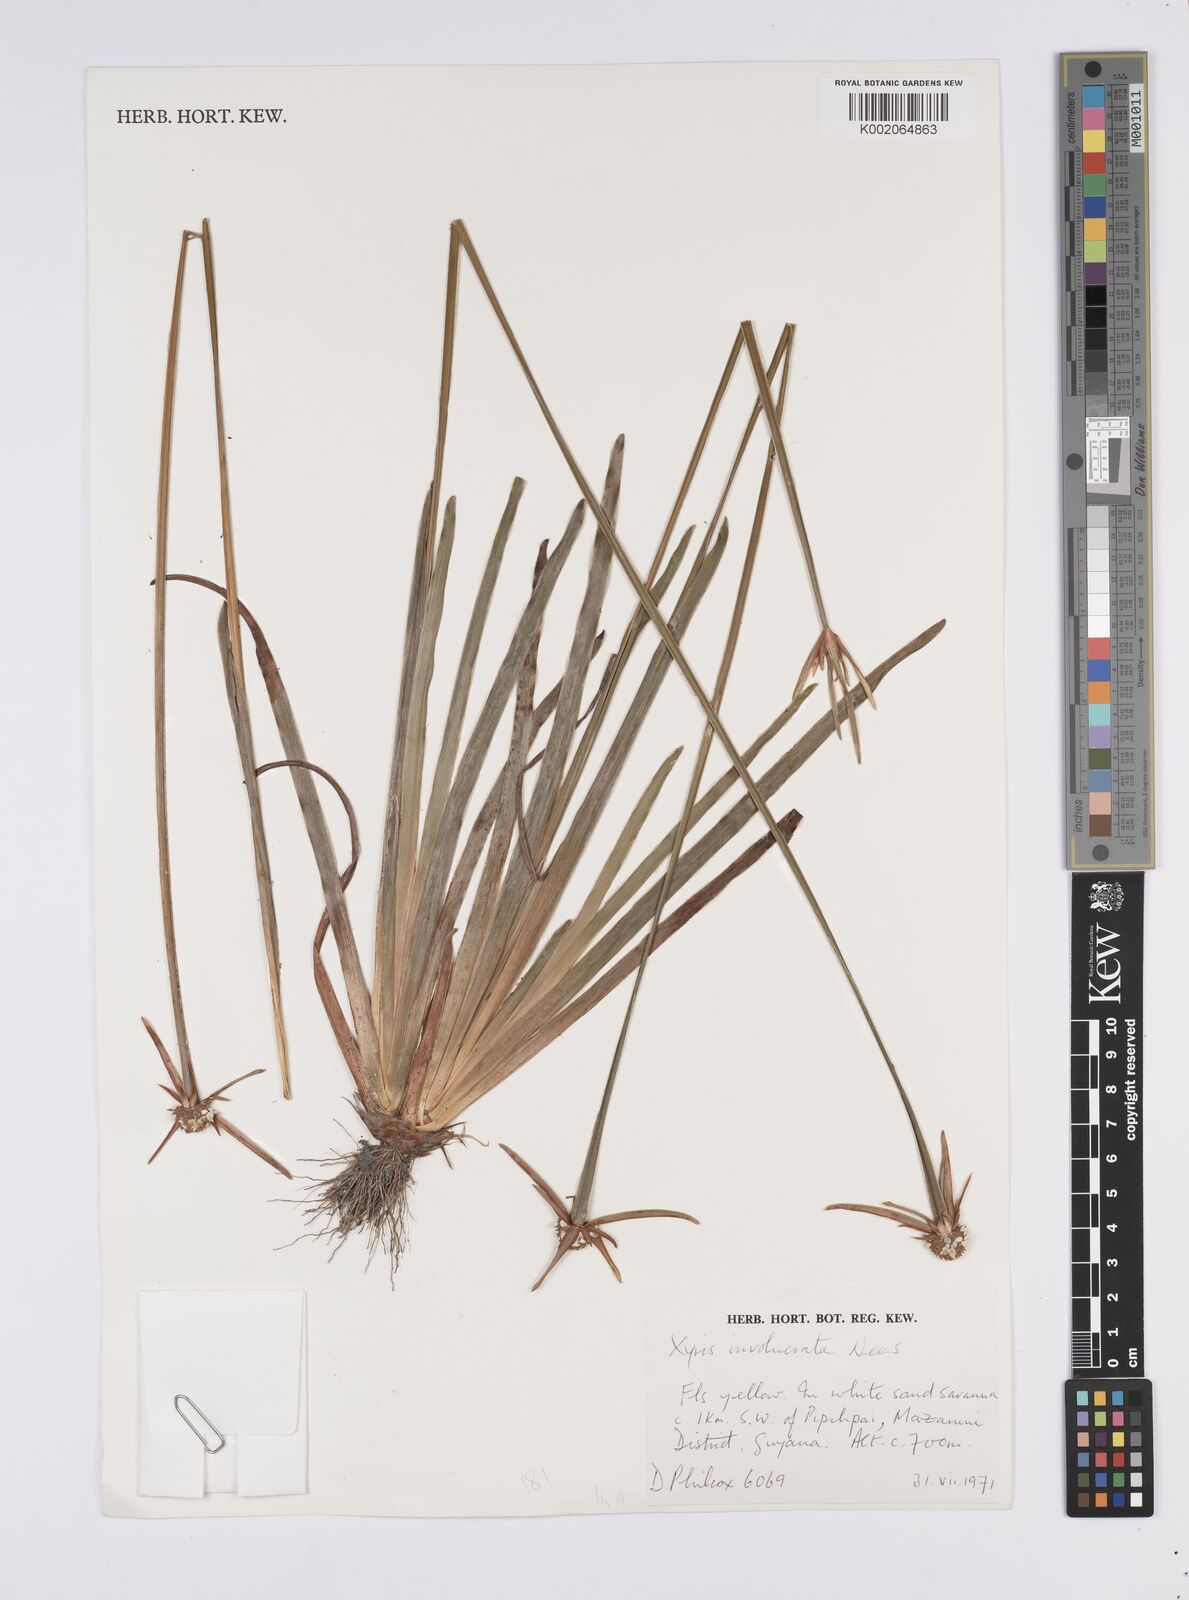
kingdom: Plantae
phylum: Tracheophyta
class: Liliopsida
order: Poales
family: Xyridaceae
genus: Xyris
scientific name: Xyris involucrata
